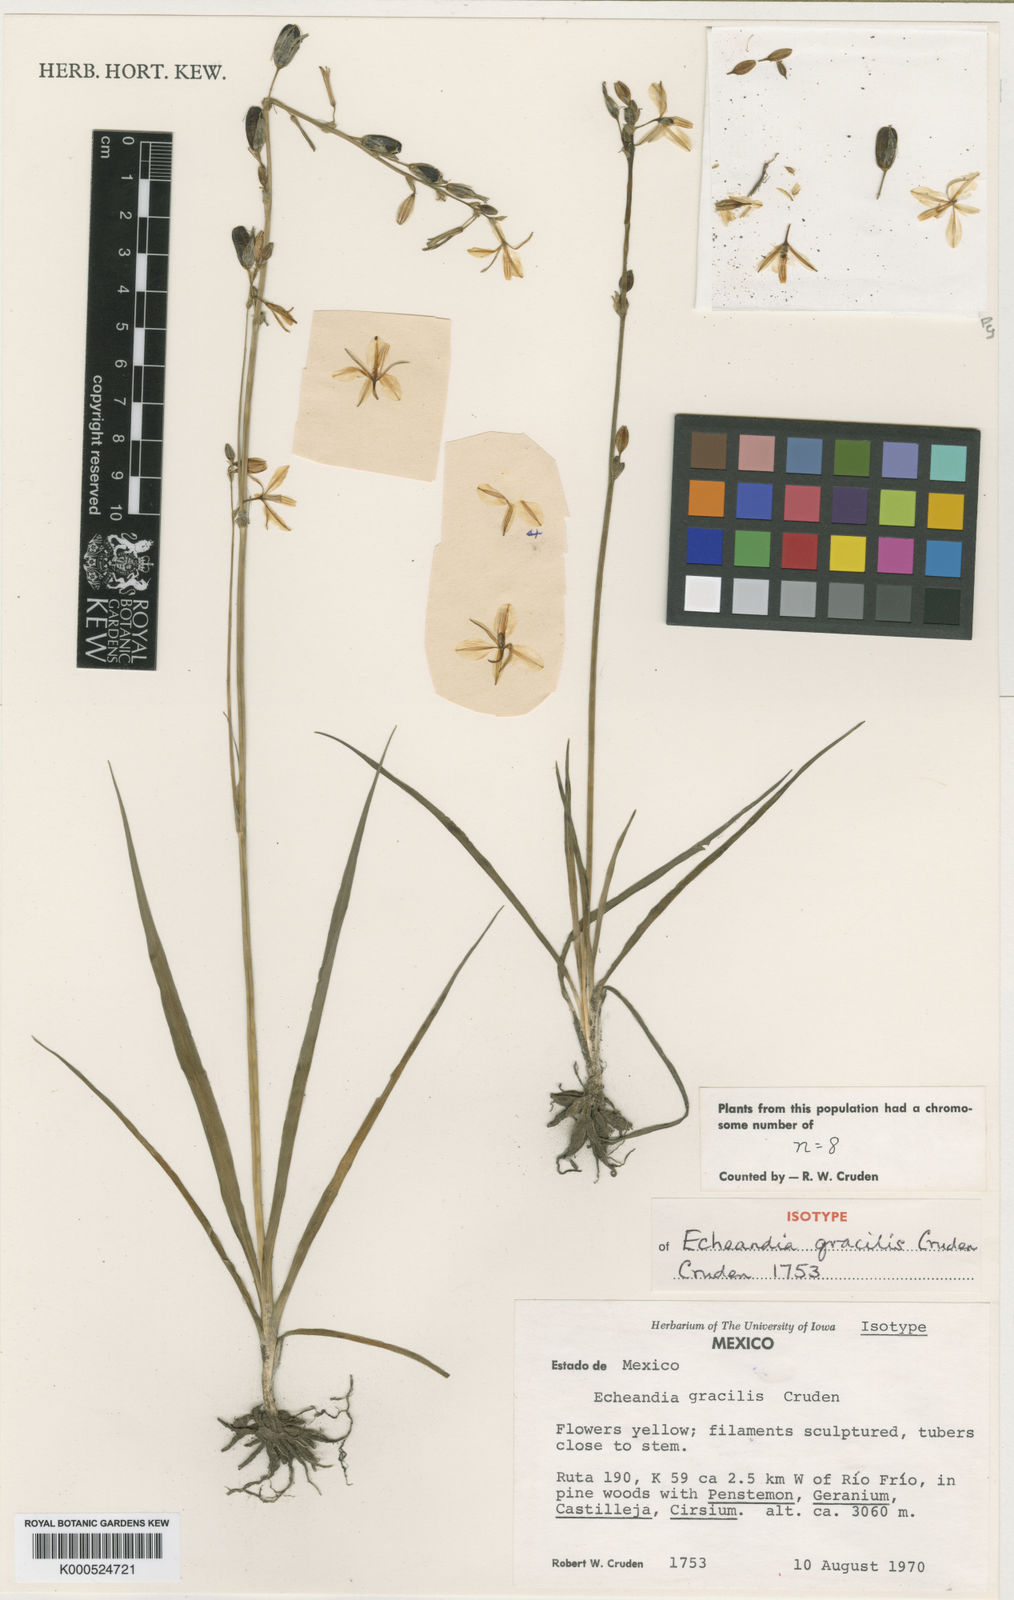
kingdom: Plantae
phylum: Tracheophyta
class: Liliopsida
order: Asparagales
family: Asparagaceae
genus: Echeandia
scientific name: Echeandia gracilis
